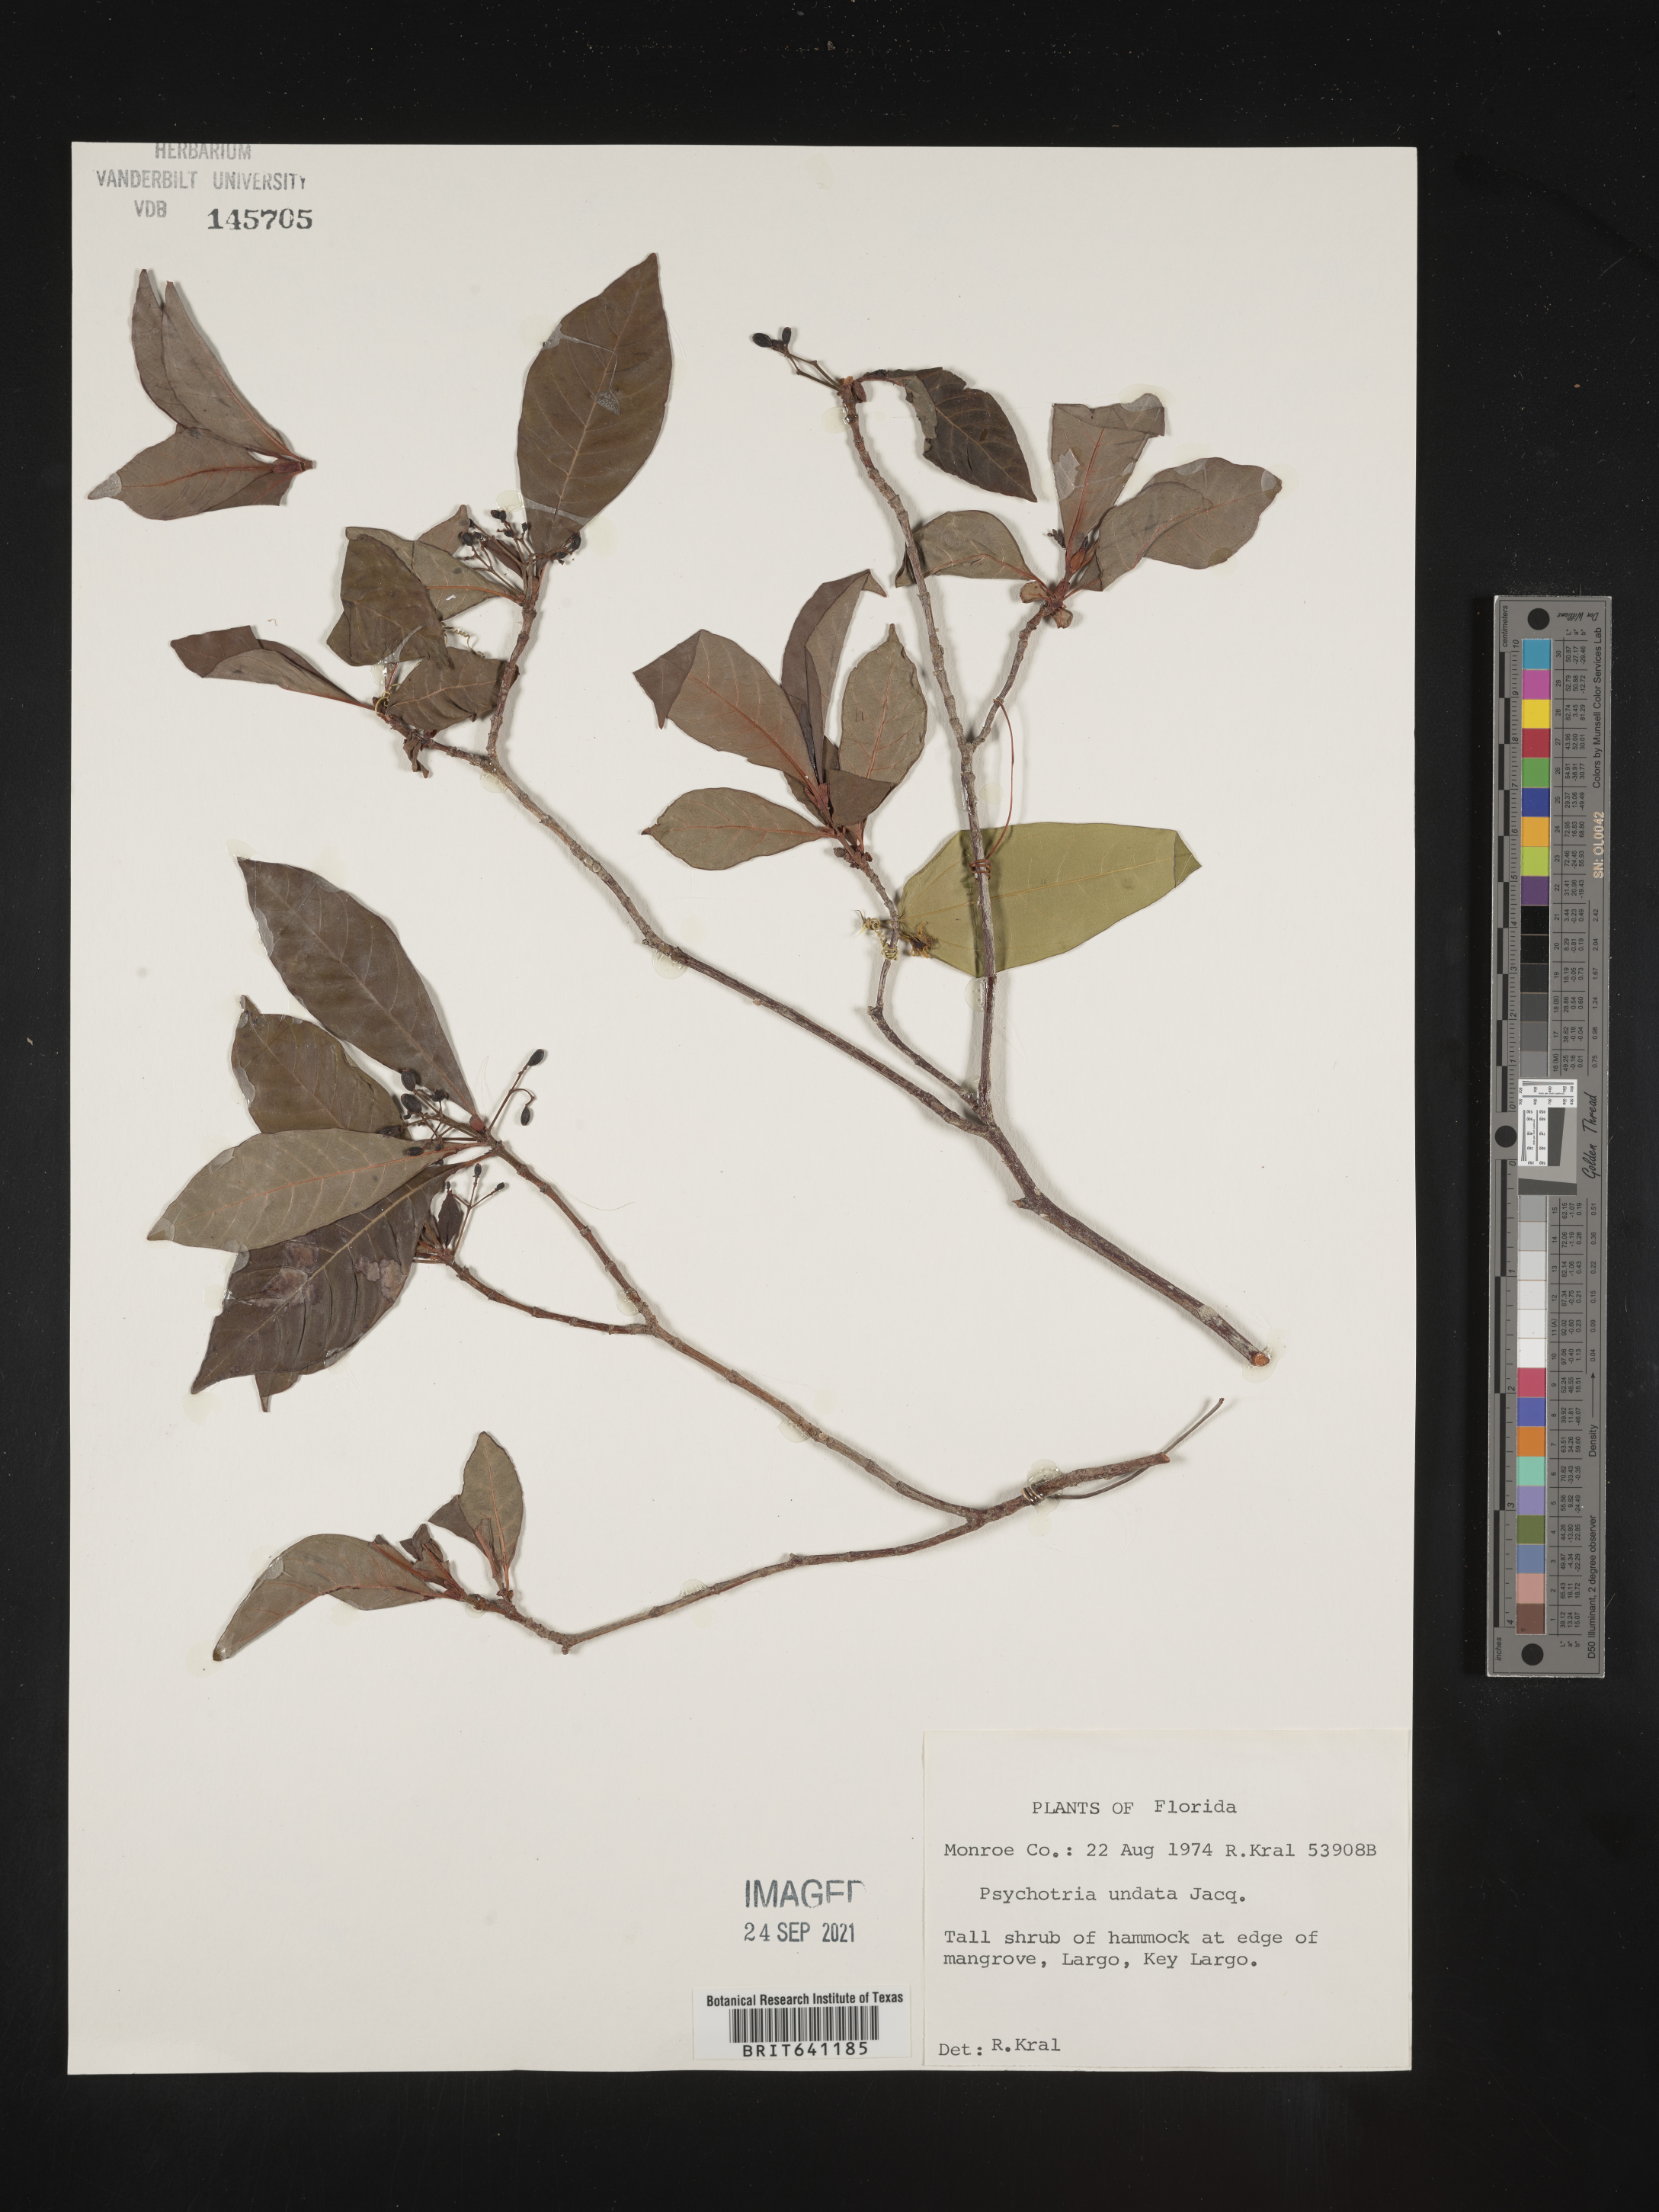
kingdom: Plantae
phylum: Tracheophyta
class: Magnoliopsida
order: Gentianales
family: Rubiaceae
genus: Psychotria
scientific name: Psychotria nervosa
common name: Bastard cankerberry
